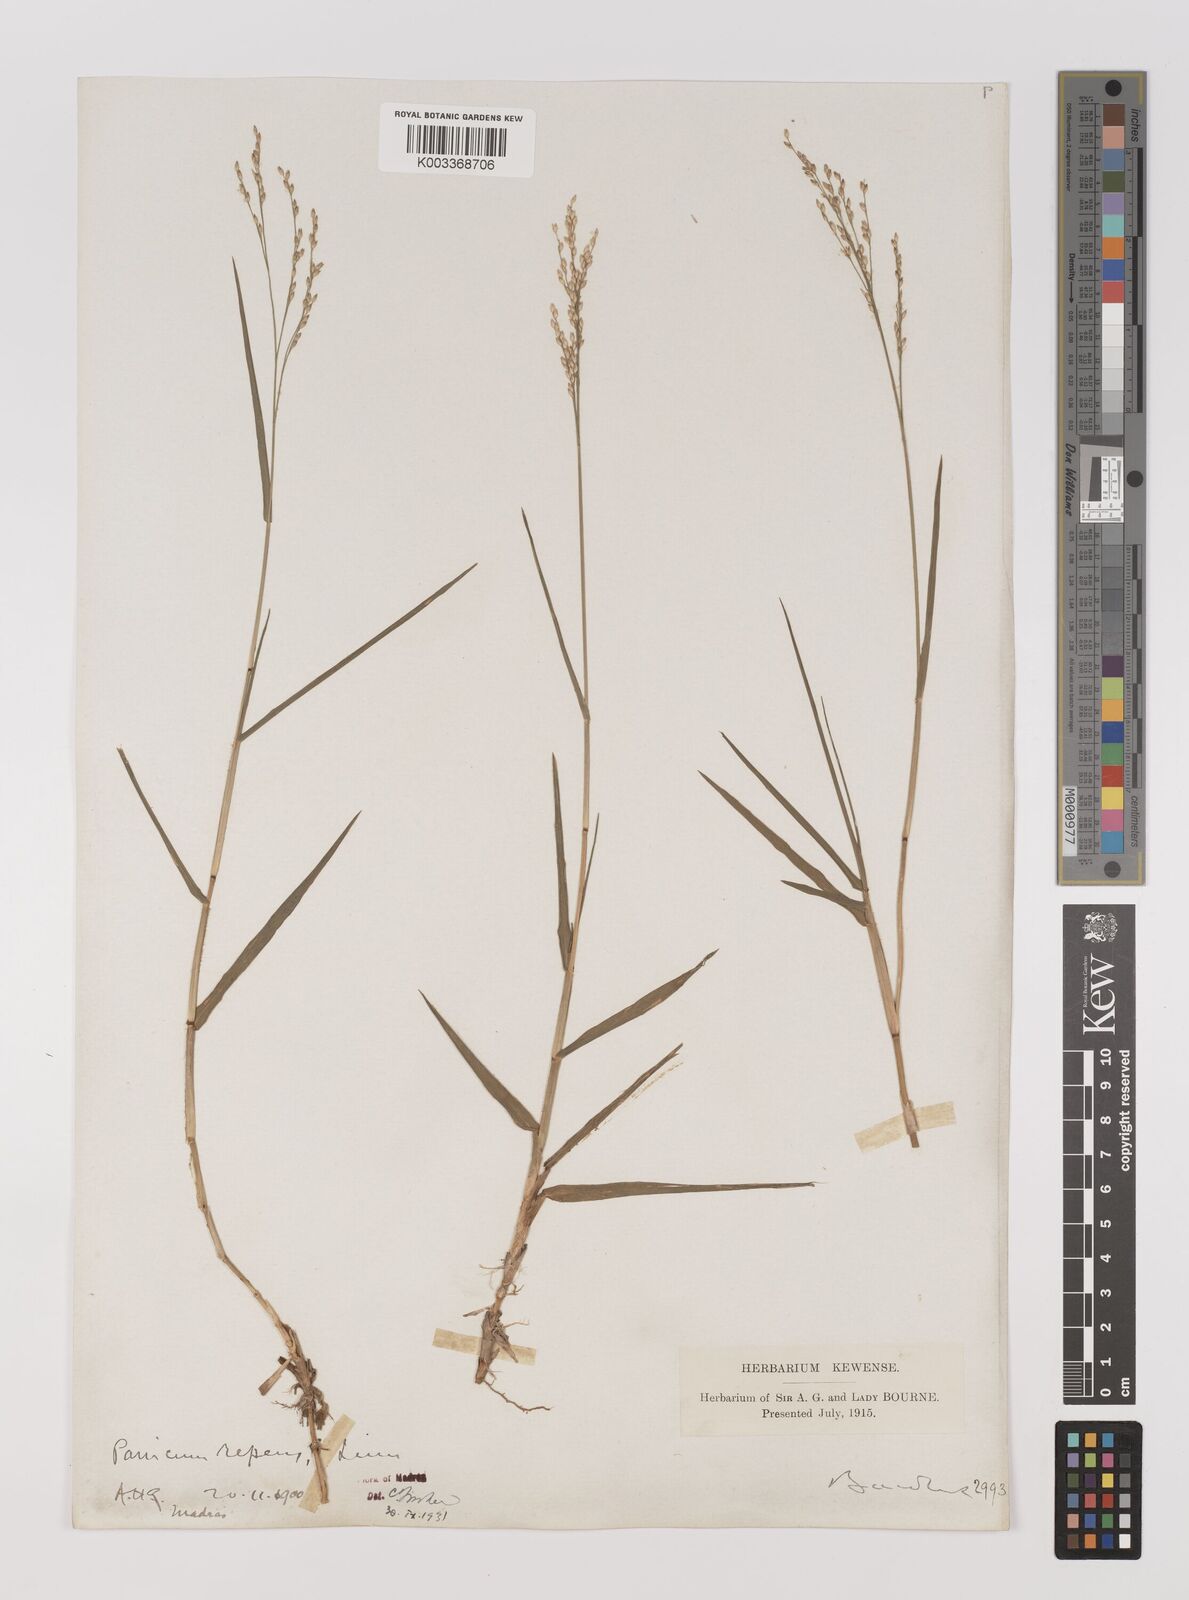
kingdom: Plantae
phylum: Tracheophyta
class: Liliopsida
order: Poales
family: Poaceae
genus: Panicum
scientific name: Panicum repens
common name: Torpedo grass
